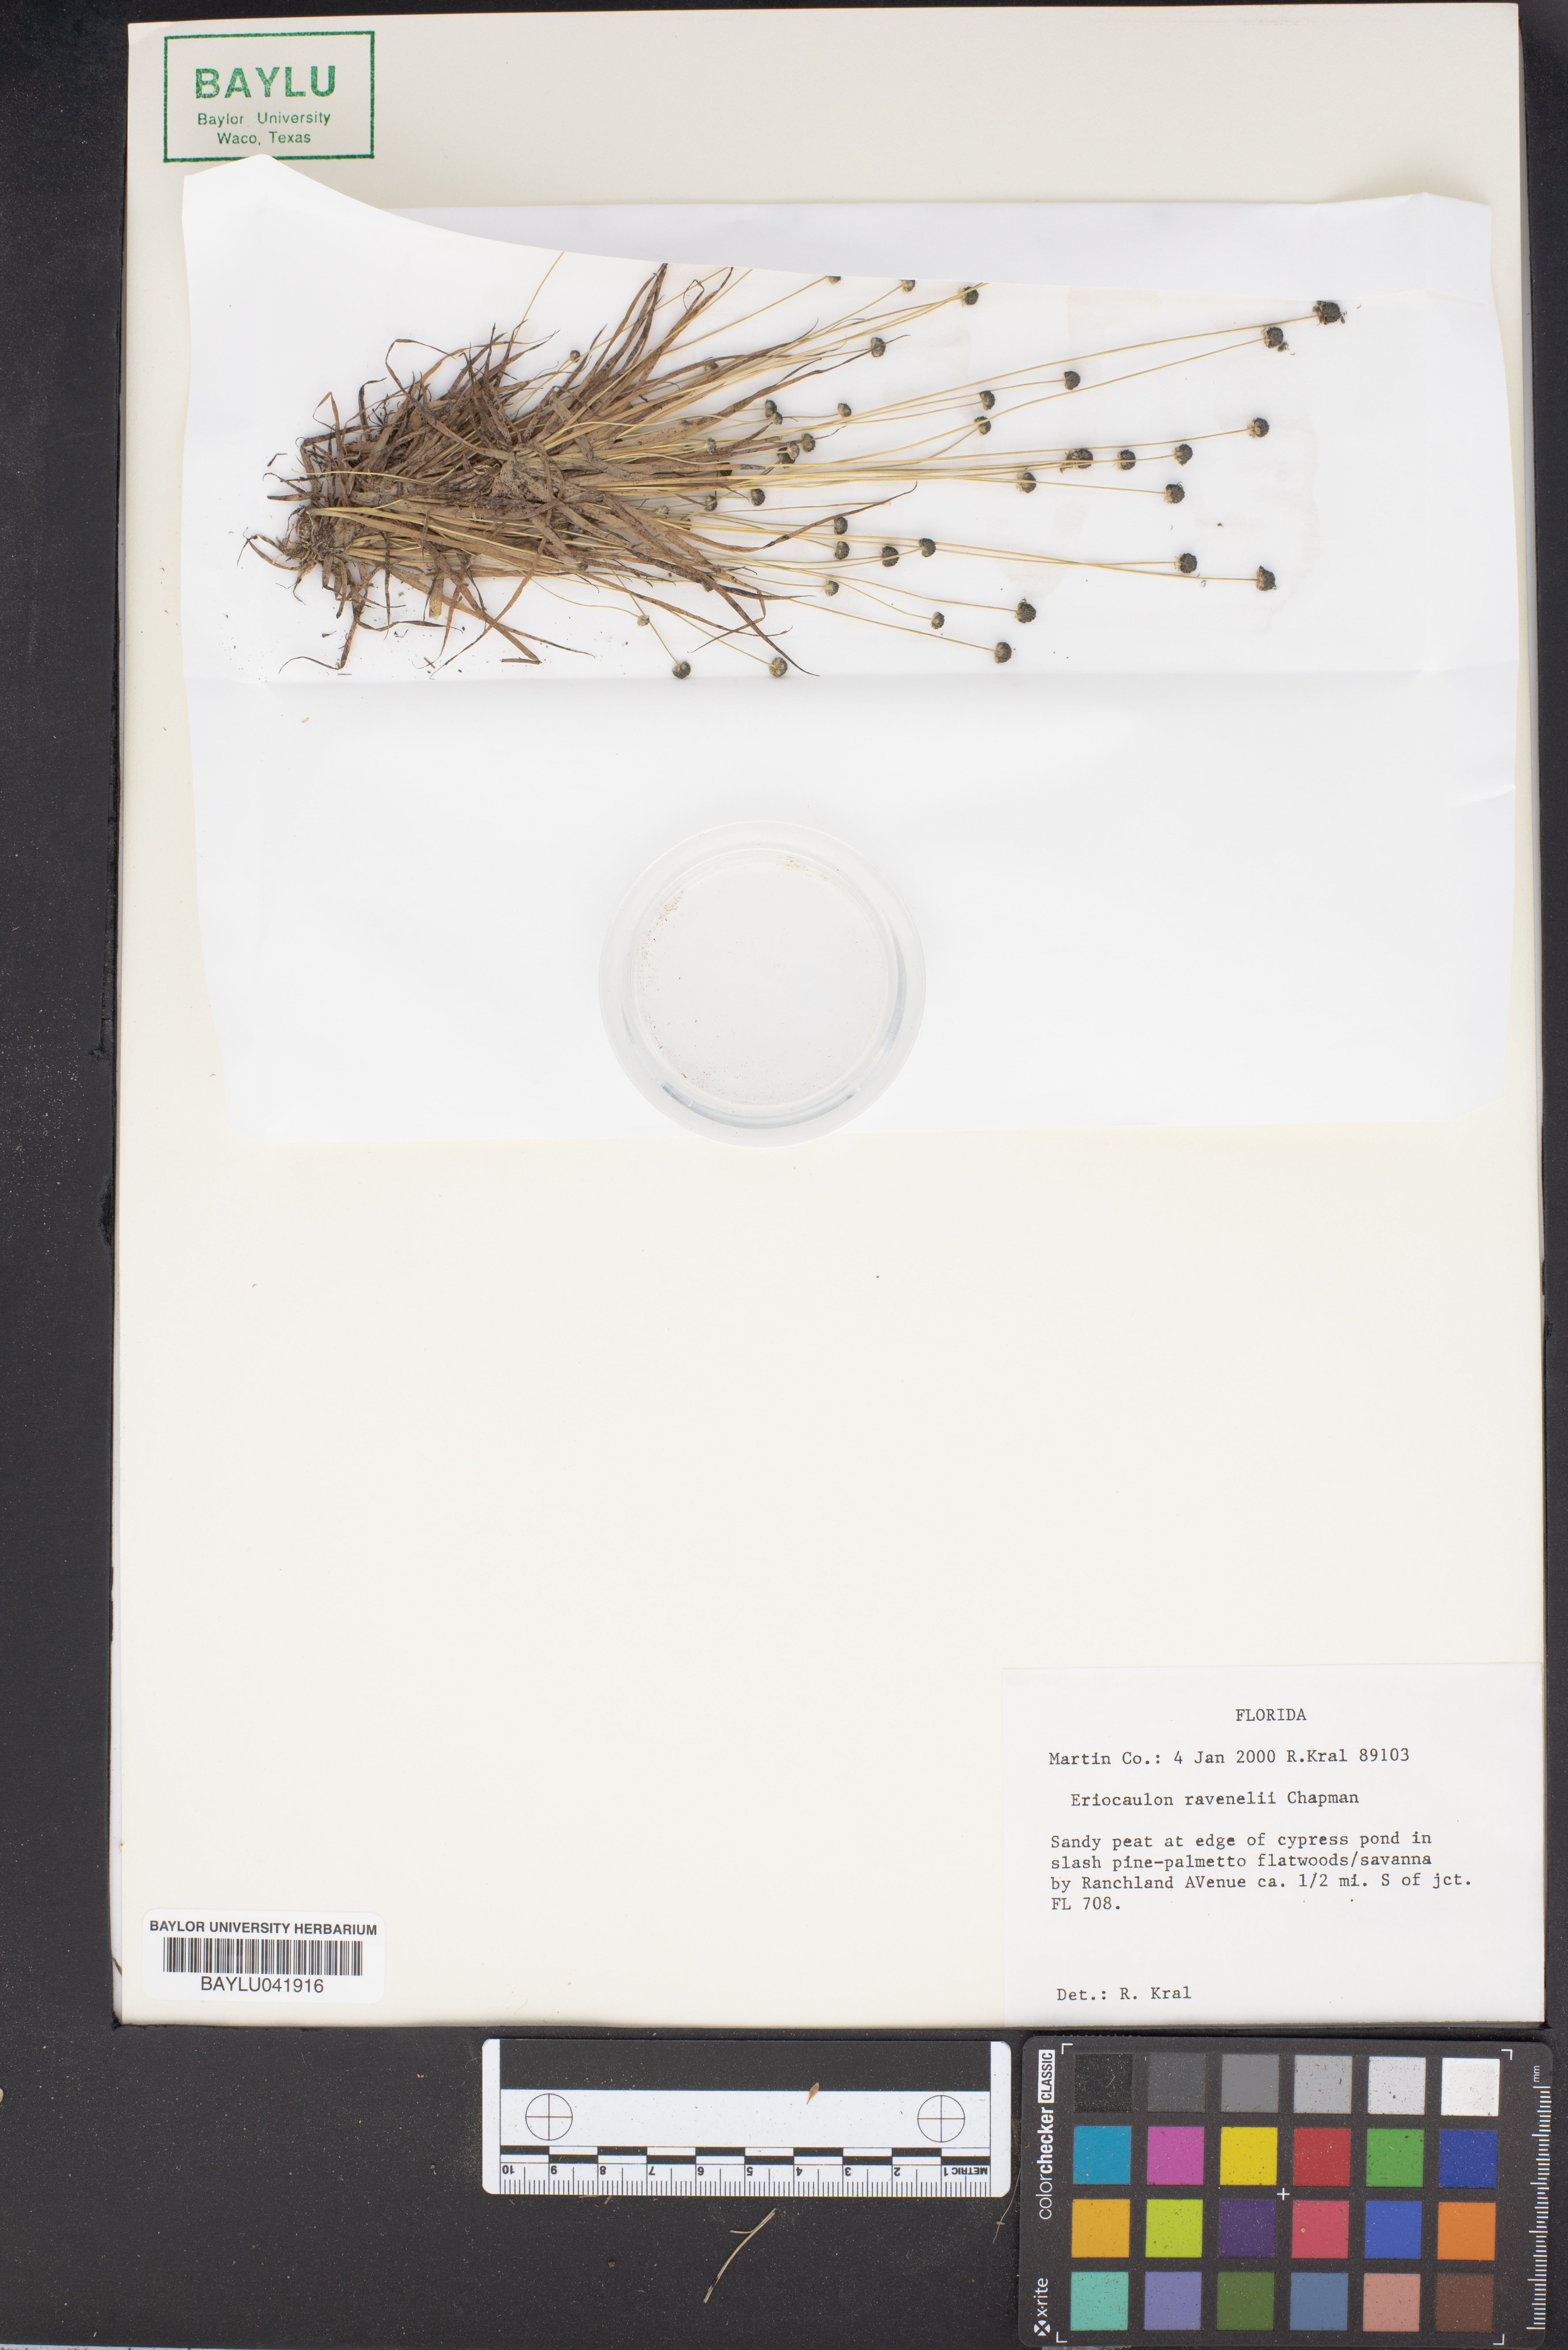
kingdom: Plantae
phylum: Tracheophyta
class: Liliopsida
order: Poales
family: Eriocaulaceae
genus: Eriocaulon
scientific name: Eriocaulon ravenelii
